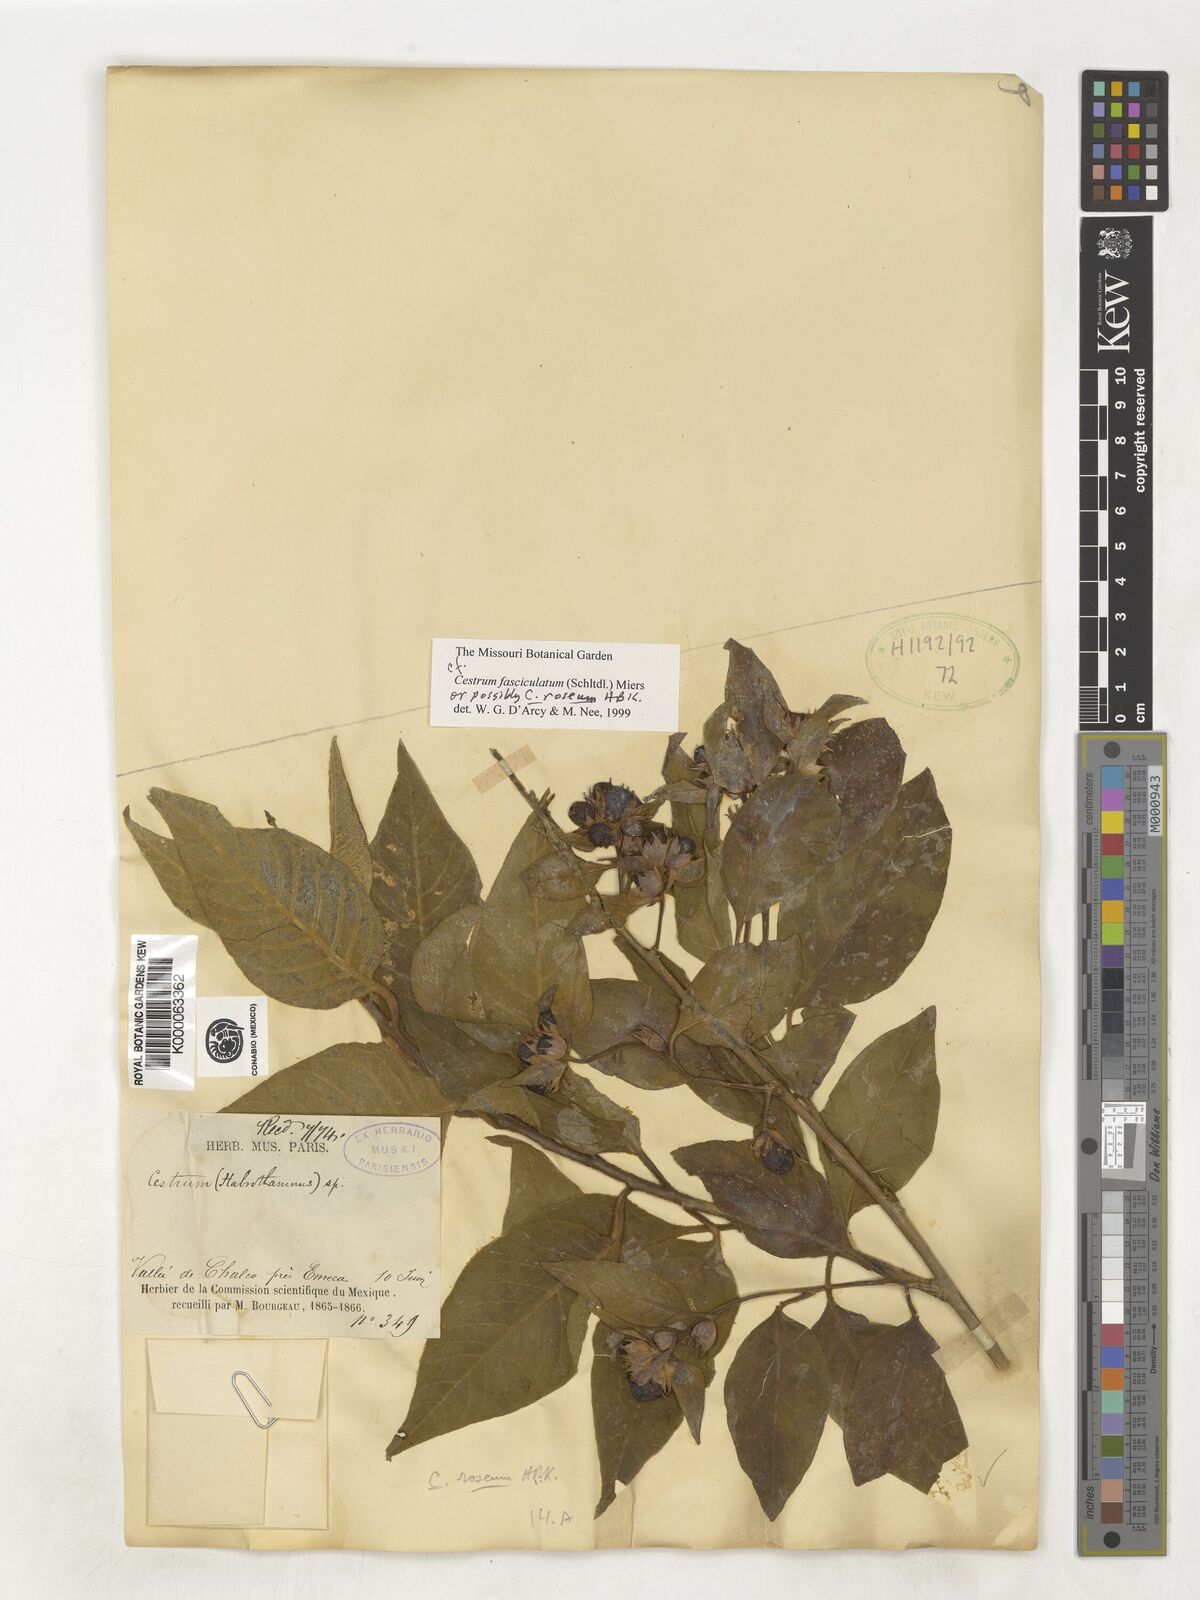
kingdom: Plantae
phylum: Tracheophyta
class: Magnoliopsida
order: Solanales
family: Solanaceae
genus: Cestrum
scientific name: Cestrum fasciculatum
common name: Early jessamine
